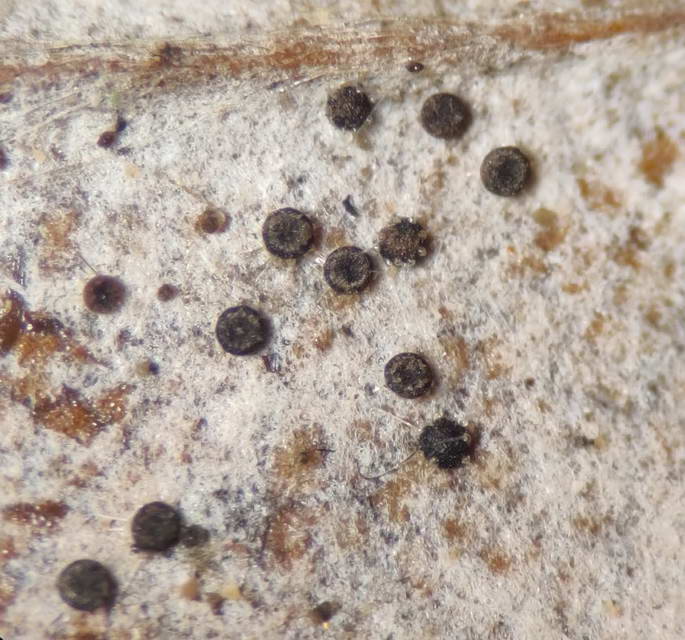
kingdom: Fungi
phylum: Ascomycota
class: Leotiomycetes
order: Helotiales
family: Erysiphaceae
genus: Phyllactinia
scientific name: Phyllactinia orbicularis
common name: bøge-meldug
